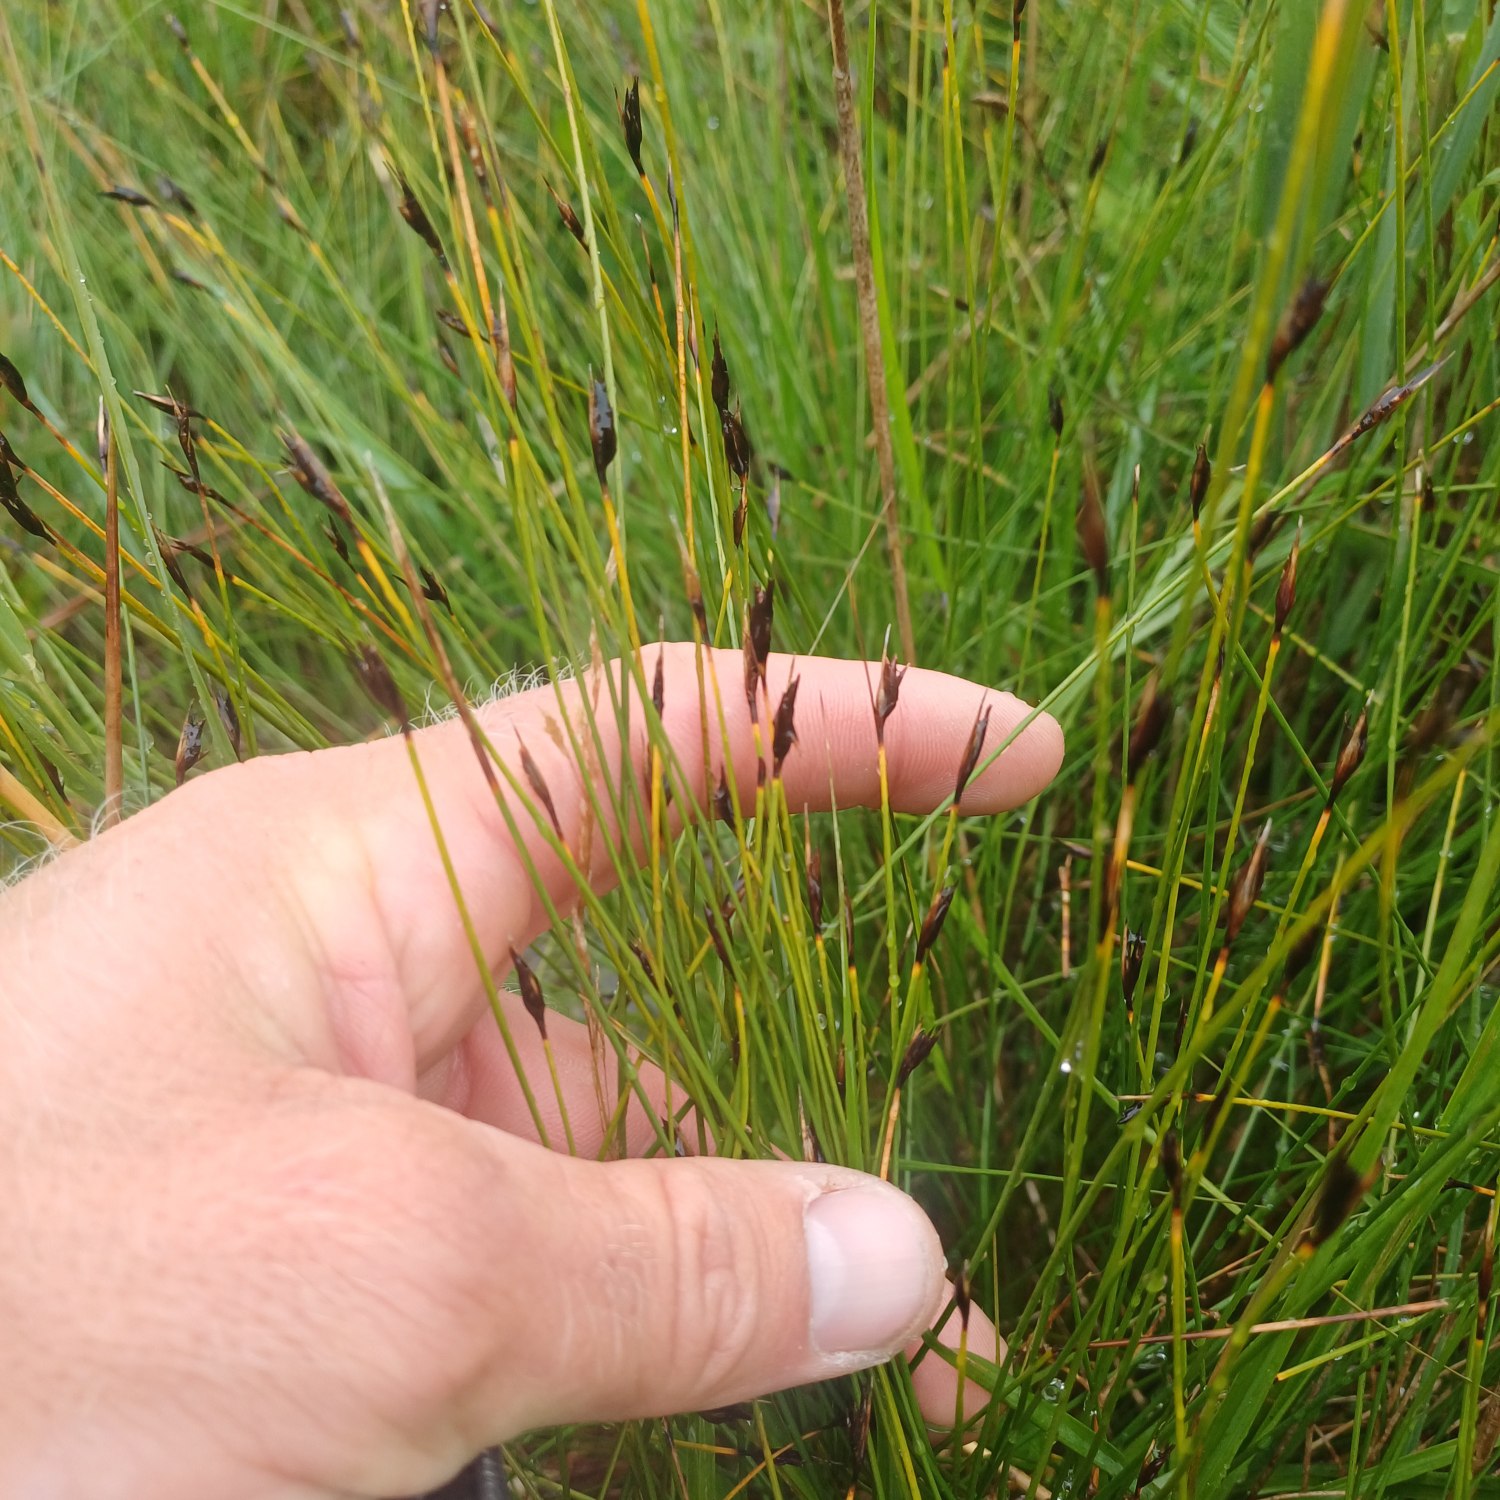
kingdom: Plantae
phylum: Tracheophyta
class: Liliopsida
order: Poales
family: Cyperaceae
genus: Schoenus
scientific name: Schoenus ferrugineus
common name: Rust-skæne
